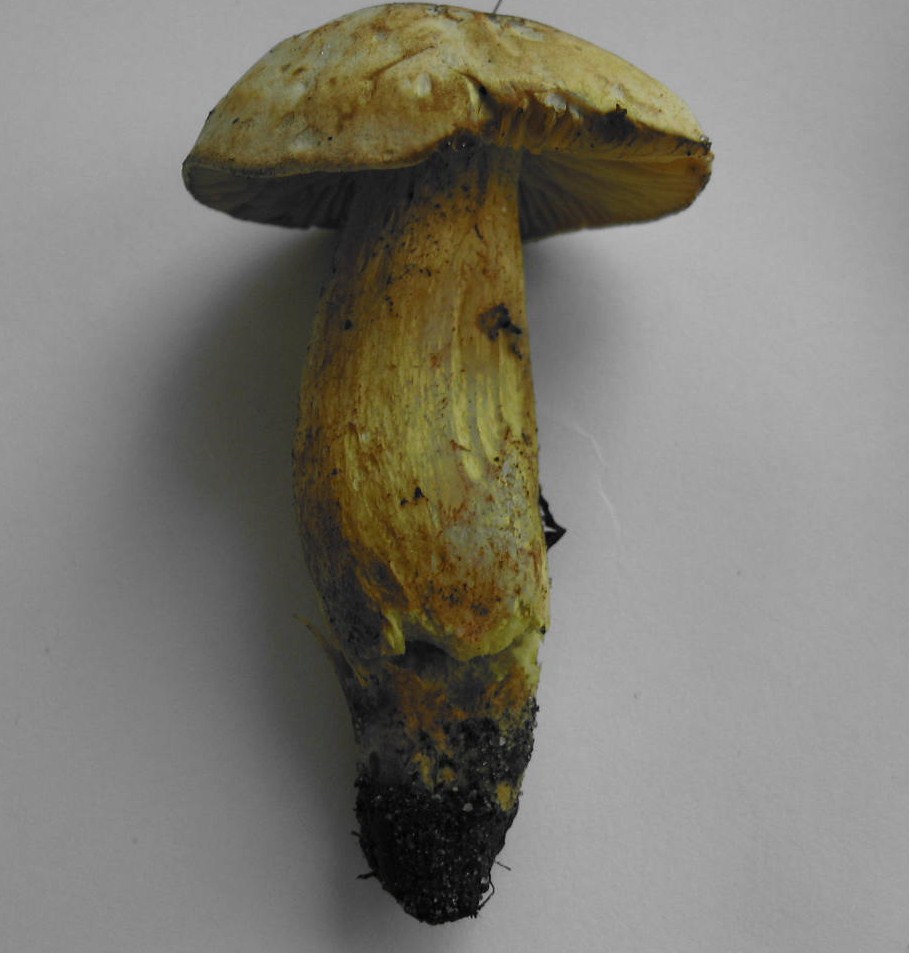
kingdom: Fungi
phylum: Basidiomycota
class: Agaricomycetes
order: Agaricales
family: Tricholomataceae
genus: Tricholoma
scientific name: Tricholoma sulphureum
